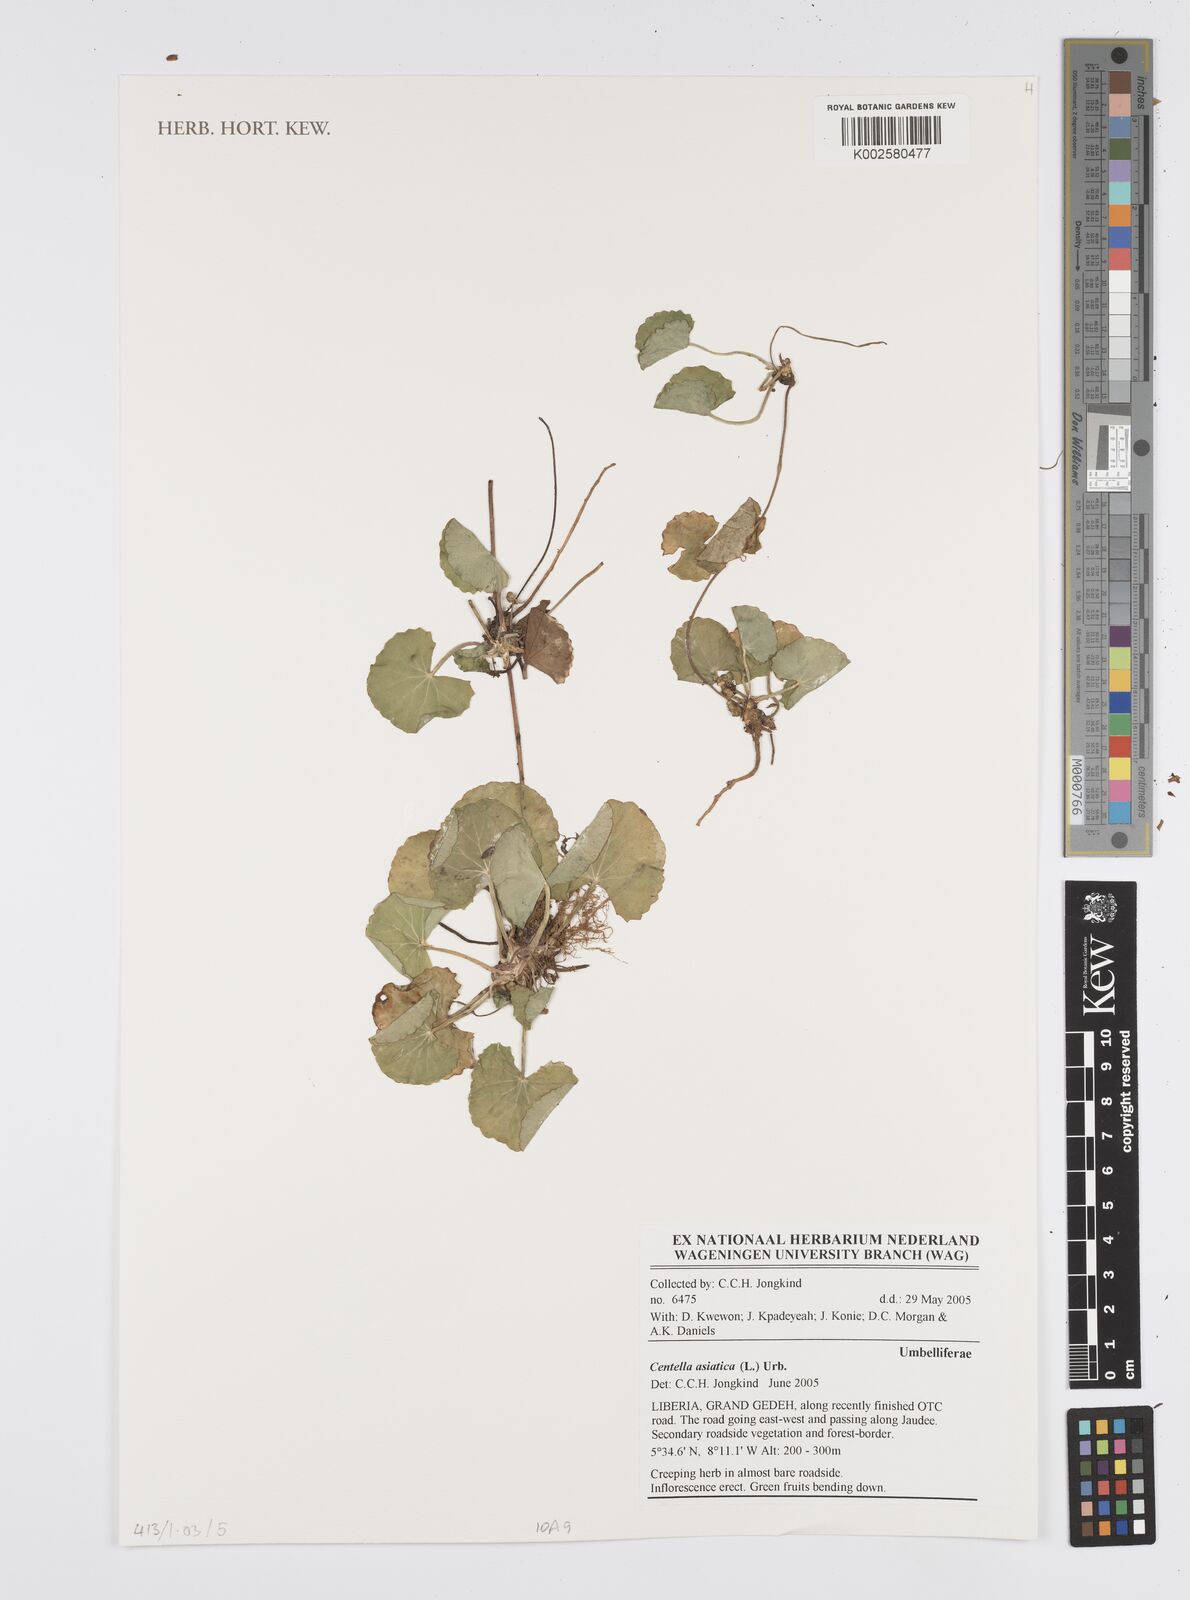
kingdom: Plantae
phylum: Tracheophyta
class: Magnoliopsida
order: Apiales
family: Apiaceae
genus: Centella
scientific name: Centella asiatica
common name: Spadeleaf
